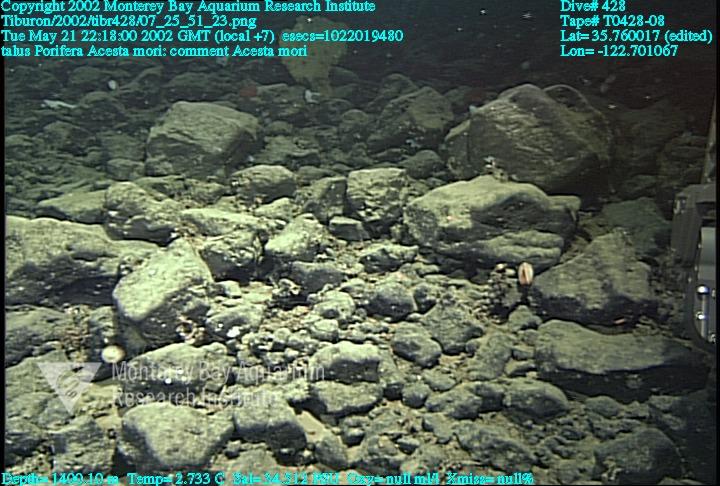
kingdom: Animalia
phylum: Porifera
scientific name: Porifera
